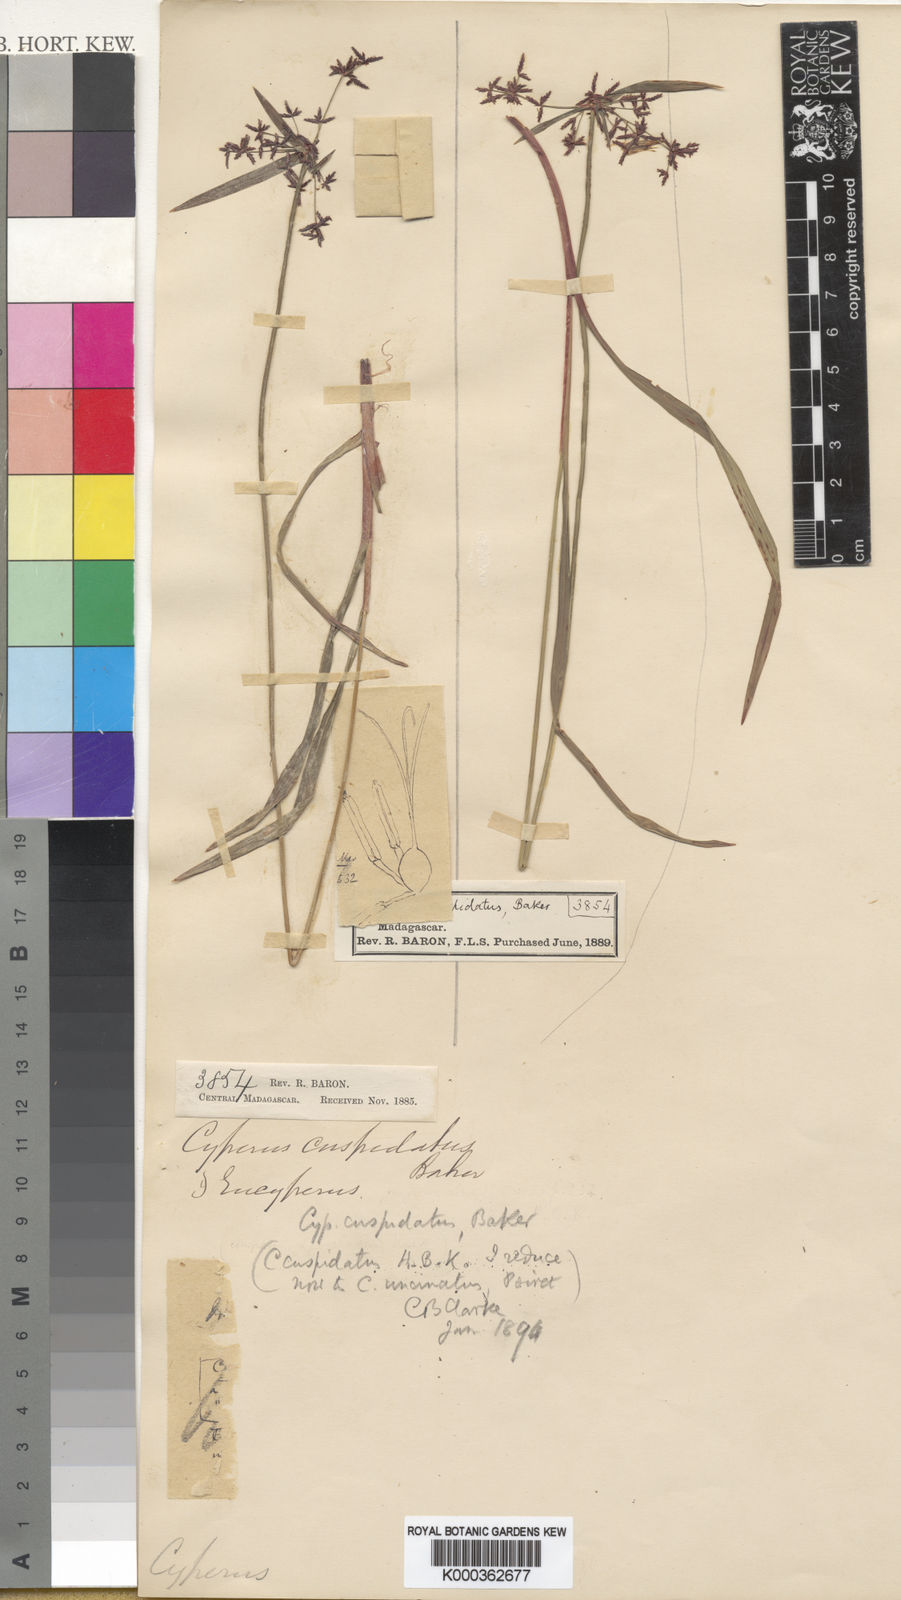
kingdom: Plantae
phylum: Tracheophyta
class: Liliopsida
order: Poales
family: Cyperaceae
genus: Cyperus
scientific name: Cyperus betafensis
